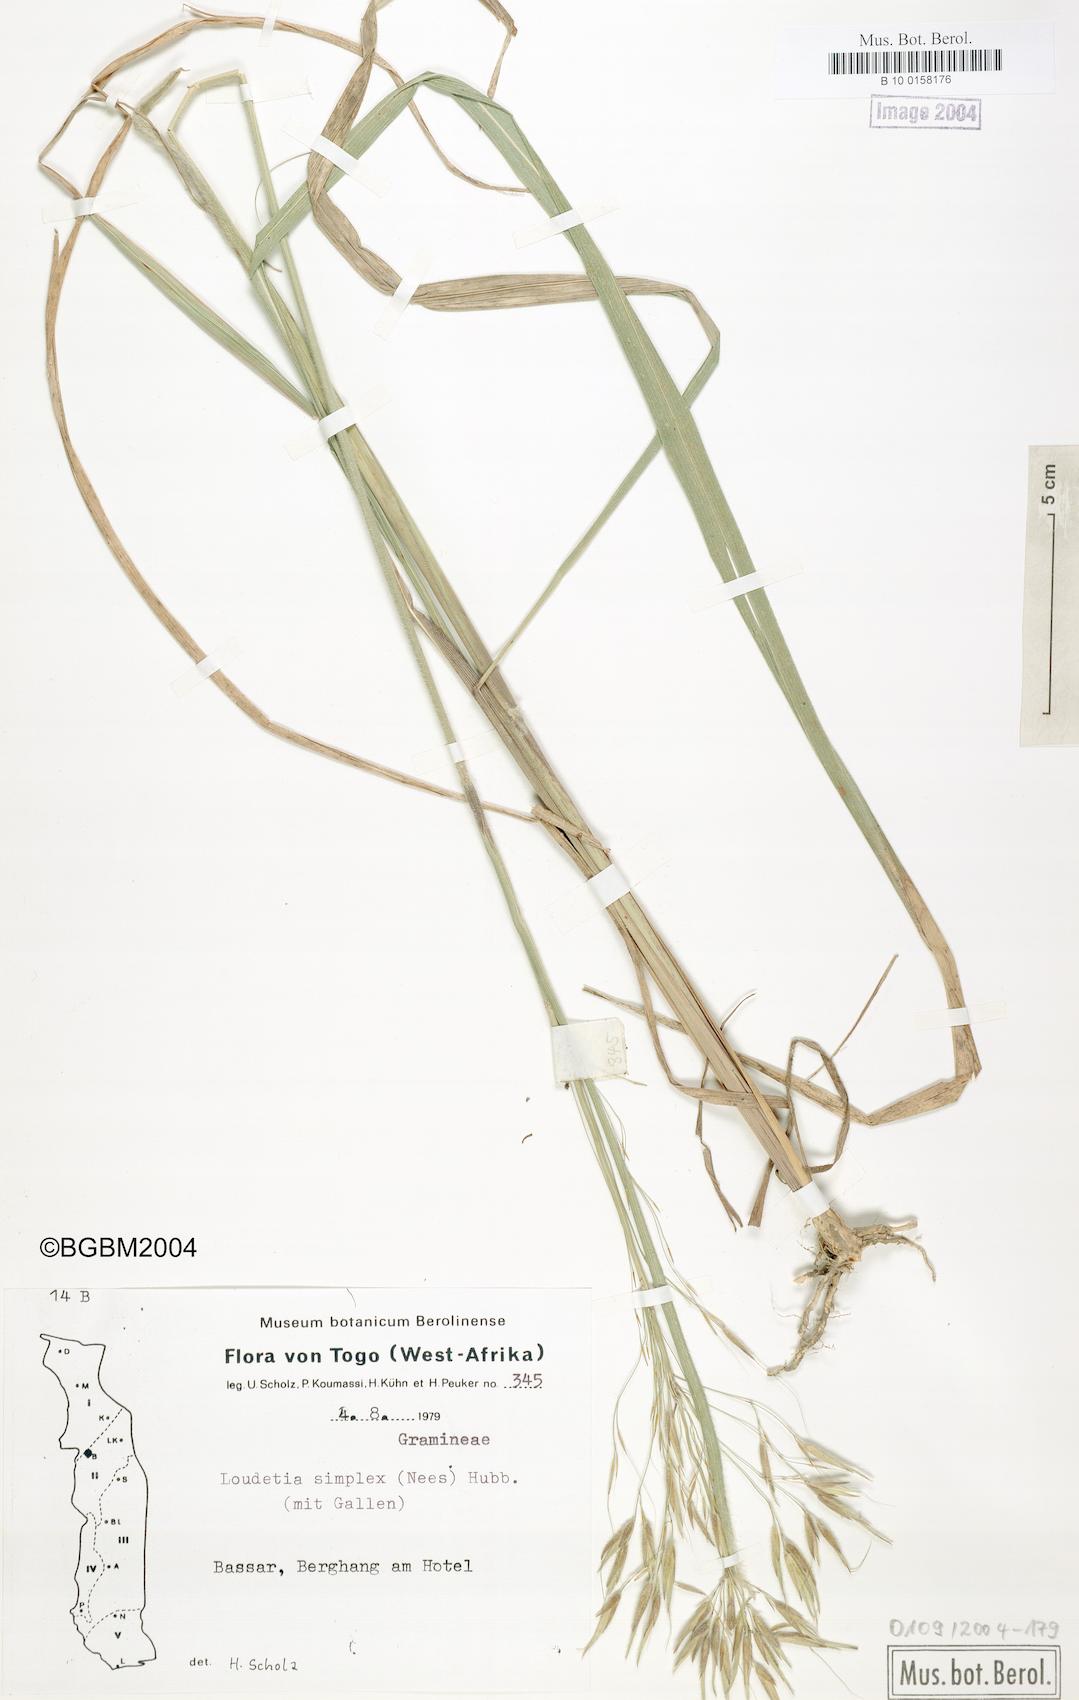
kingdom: Plantae
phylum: Tracheophyta
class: Liliopsida
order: Poales
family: Poaceae
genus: Loudetia
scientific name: Loudetia simplex
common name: Common russet grass
